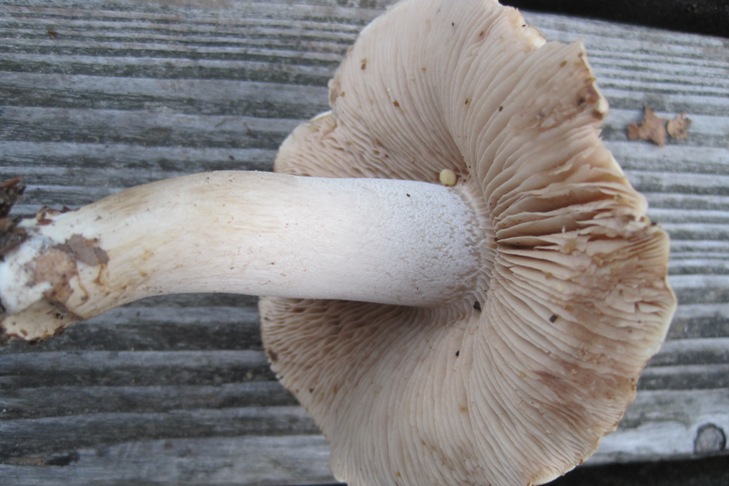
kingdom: Fungi
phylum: Basidiomycota
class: Agaricomycetes
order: Agaricales
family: Hymenogastraceae
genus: Hebeloma
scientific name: Hebeloma sinapizans
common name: ræddike-tåreblad
